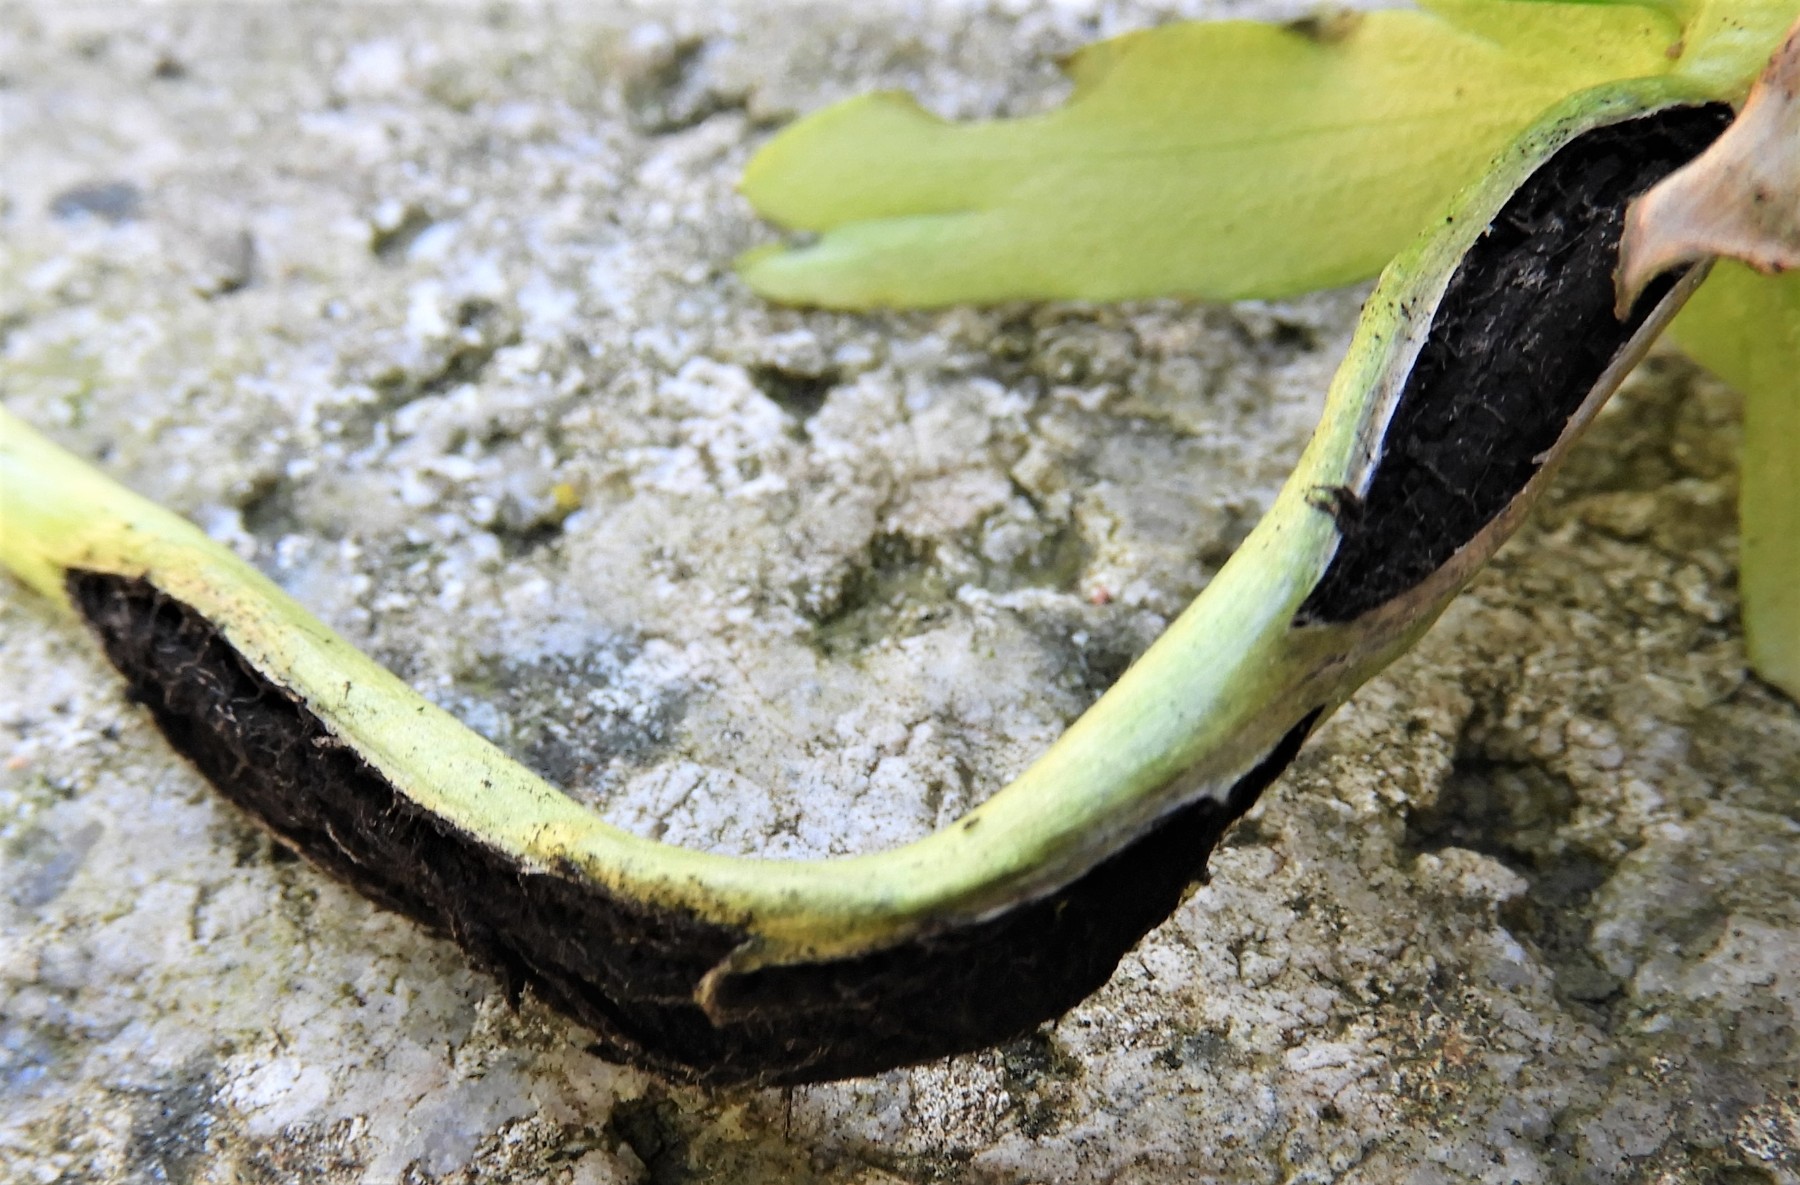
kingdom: Fungi
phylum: Basidiomycota
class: Ustilaginomycetes
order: Urocystidales
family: Urocystidaceae
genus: Urocystis
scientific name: Urocystis eranthidis
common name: erantis-brand
